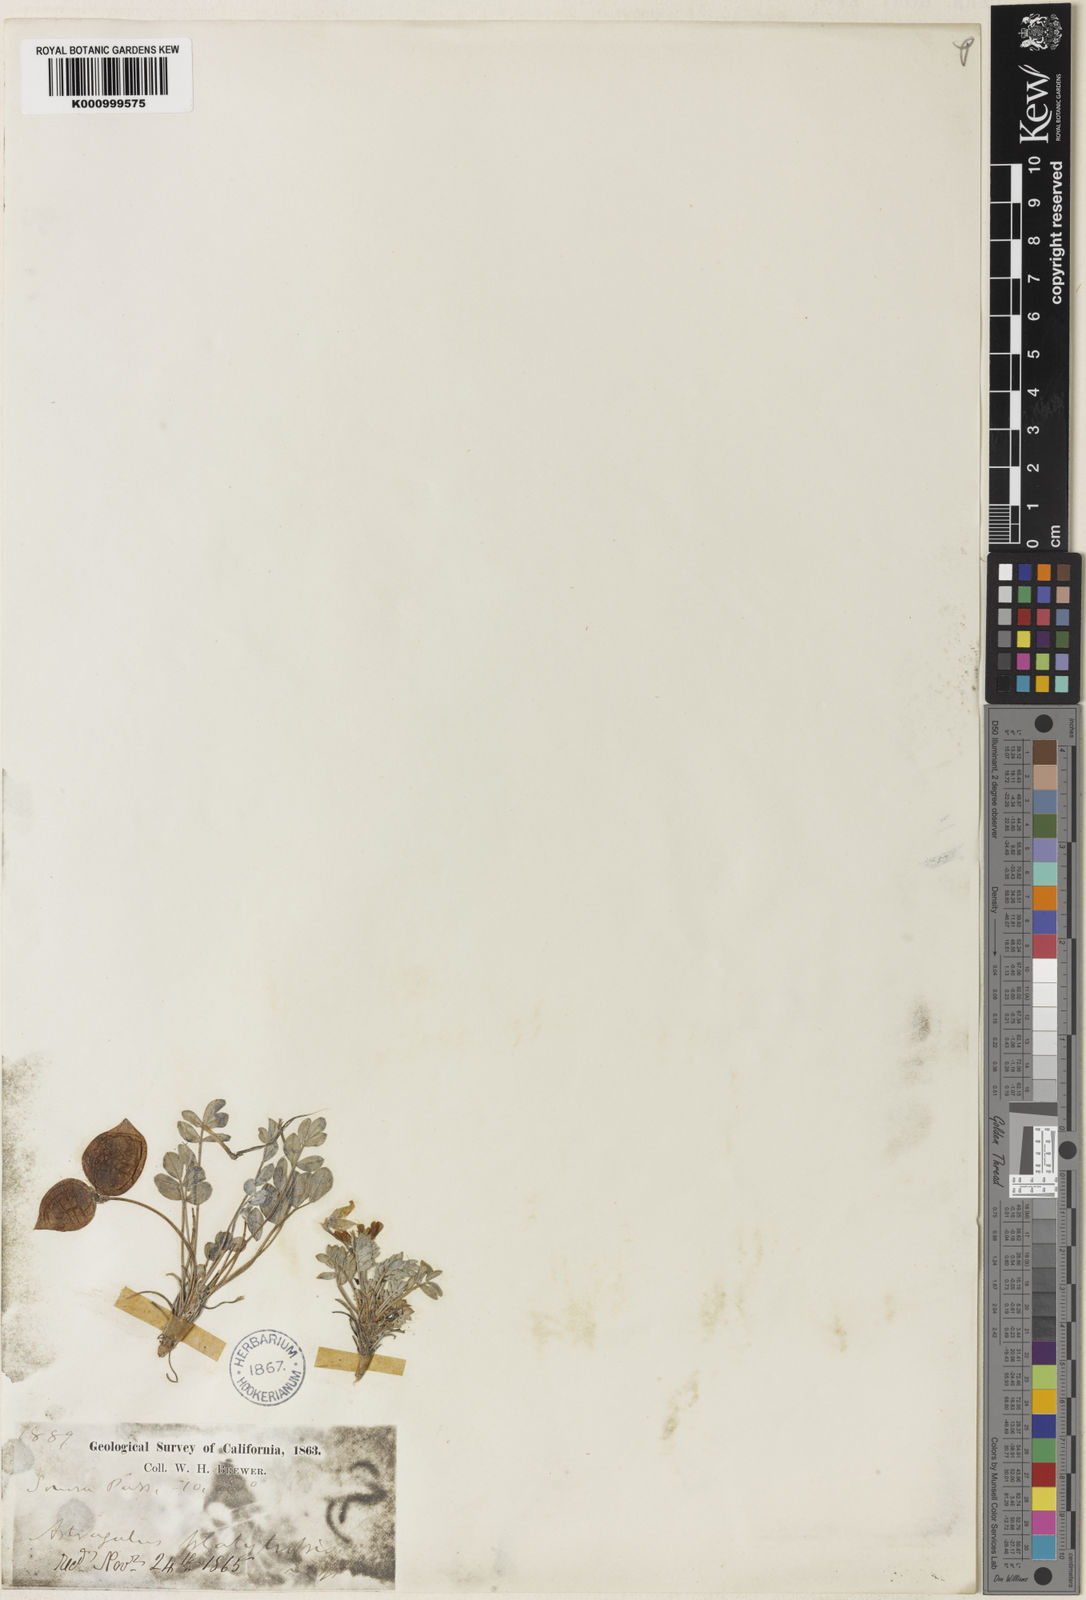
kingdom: Plantae
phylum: Tracheophyta
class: Magnoliopsida
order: Fabales
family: Fabaceae
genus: Astragalus
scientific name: Astragalus platytropis
